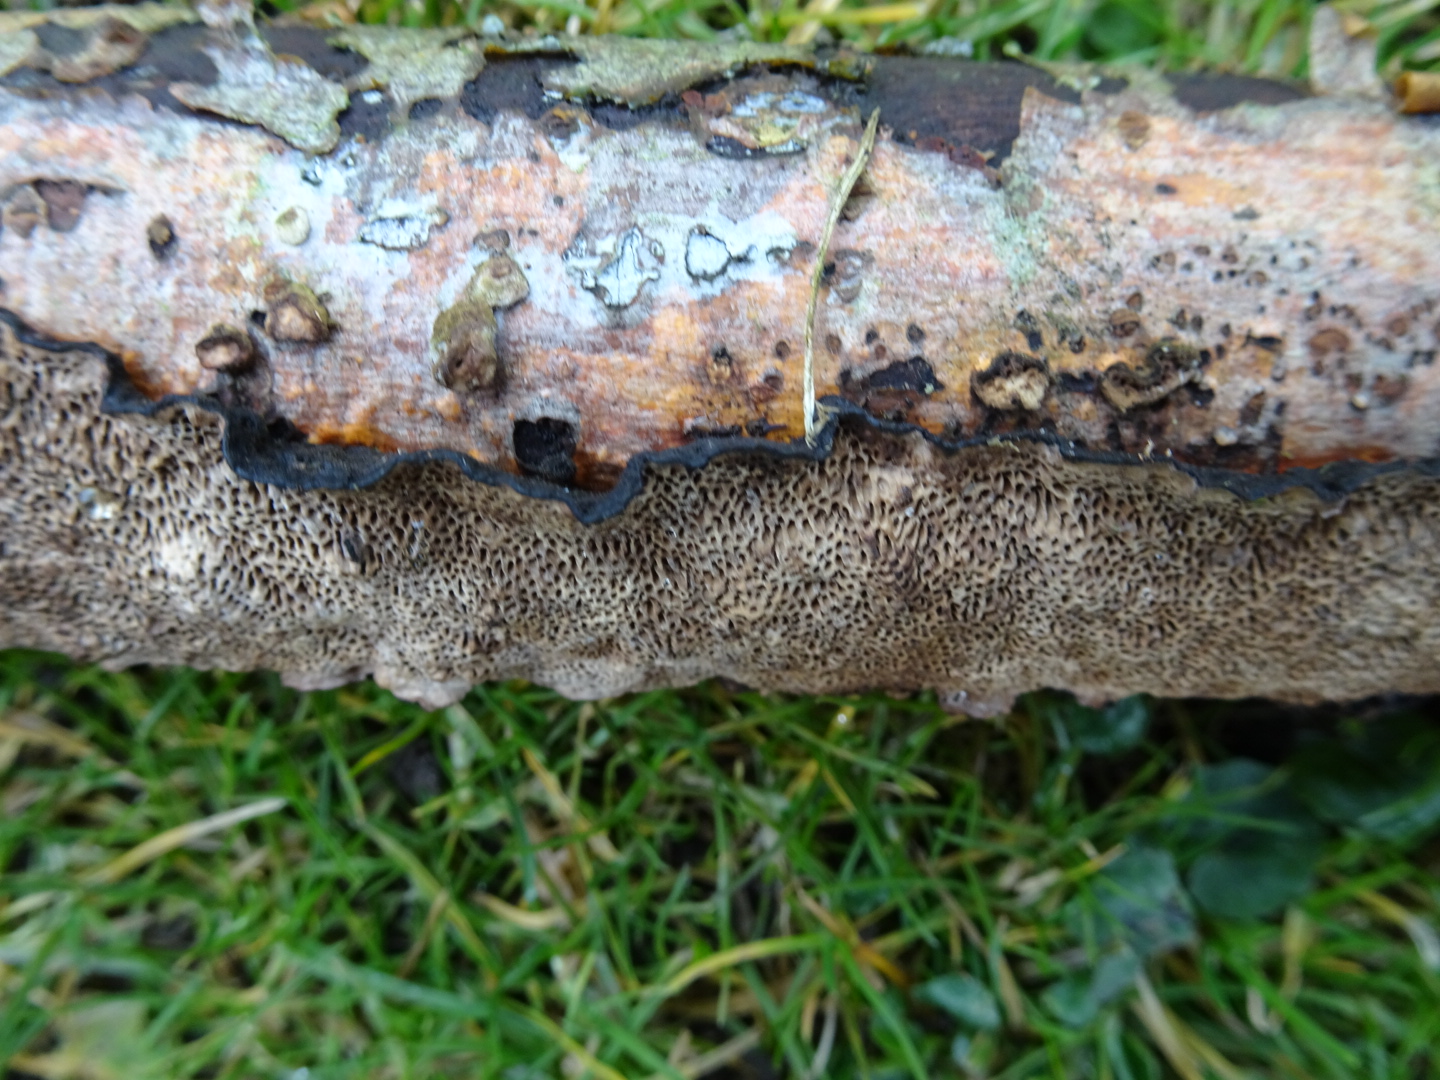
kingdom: Fungi
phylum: Basidiomycota
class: Agaricomycetes
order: Polyporales
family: Polyporaceae
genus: Podofomes
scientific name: Podofomes mollis
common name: blød begporesvamp
